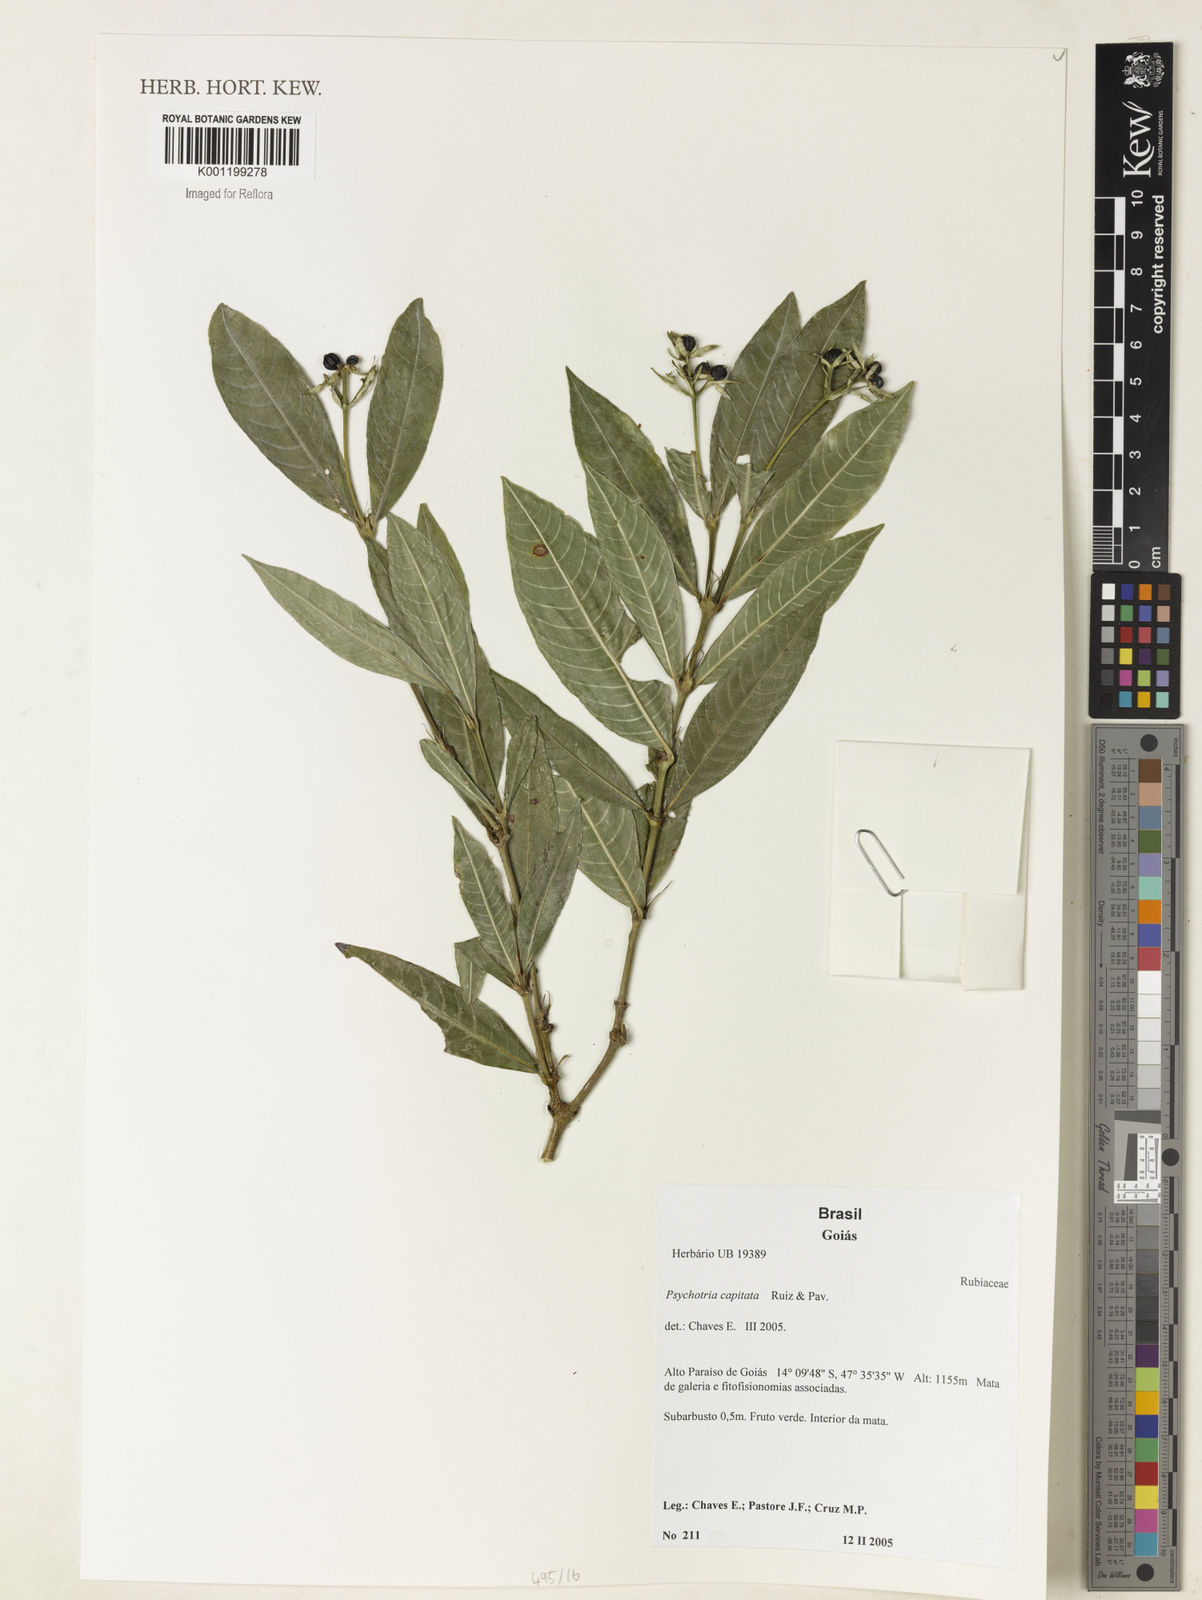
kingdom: Plantae
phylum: Tracheophyta
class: Magnoliopsida
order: Gentianales
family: Rubiaceae
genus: Palicourea
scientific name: Palicourea violacea
